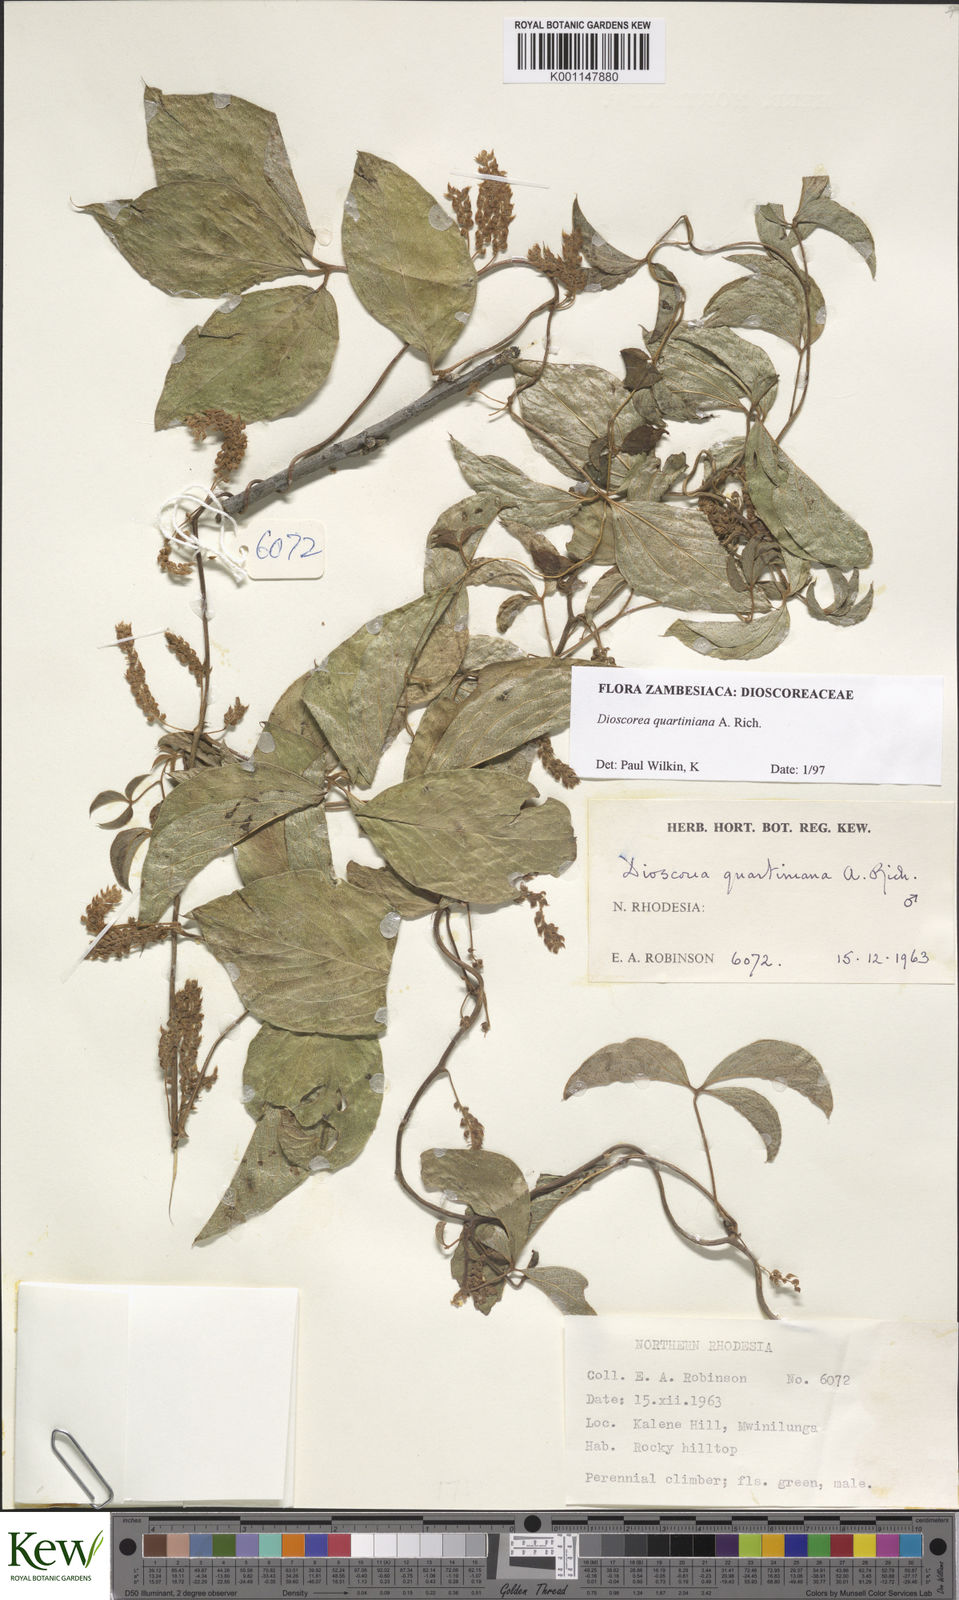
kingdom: Plantae
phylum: Tracheophyta
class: Liliopsida
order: Dioscoreales
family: Dioscoreaceae
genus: Dioscorea
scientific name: Dioscorea quartiniana
